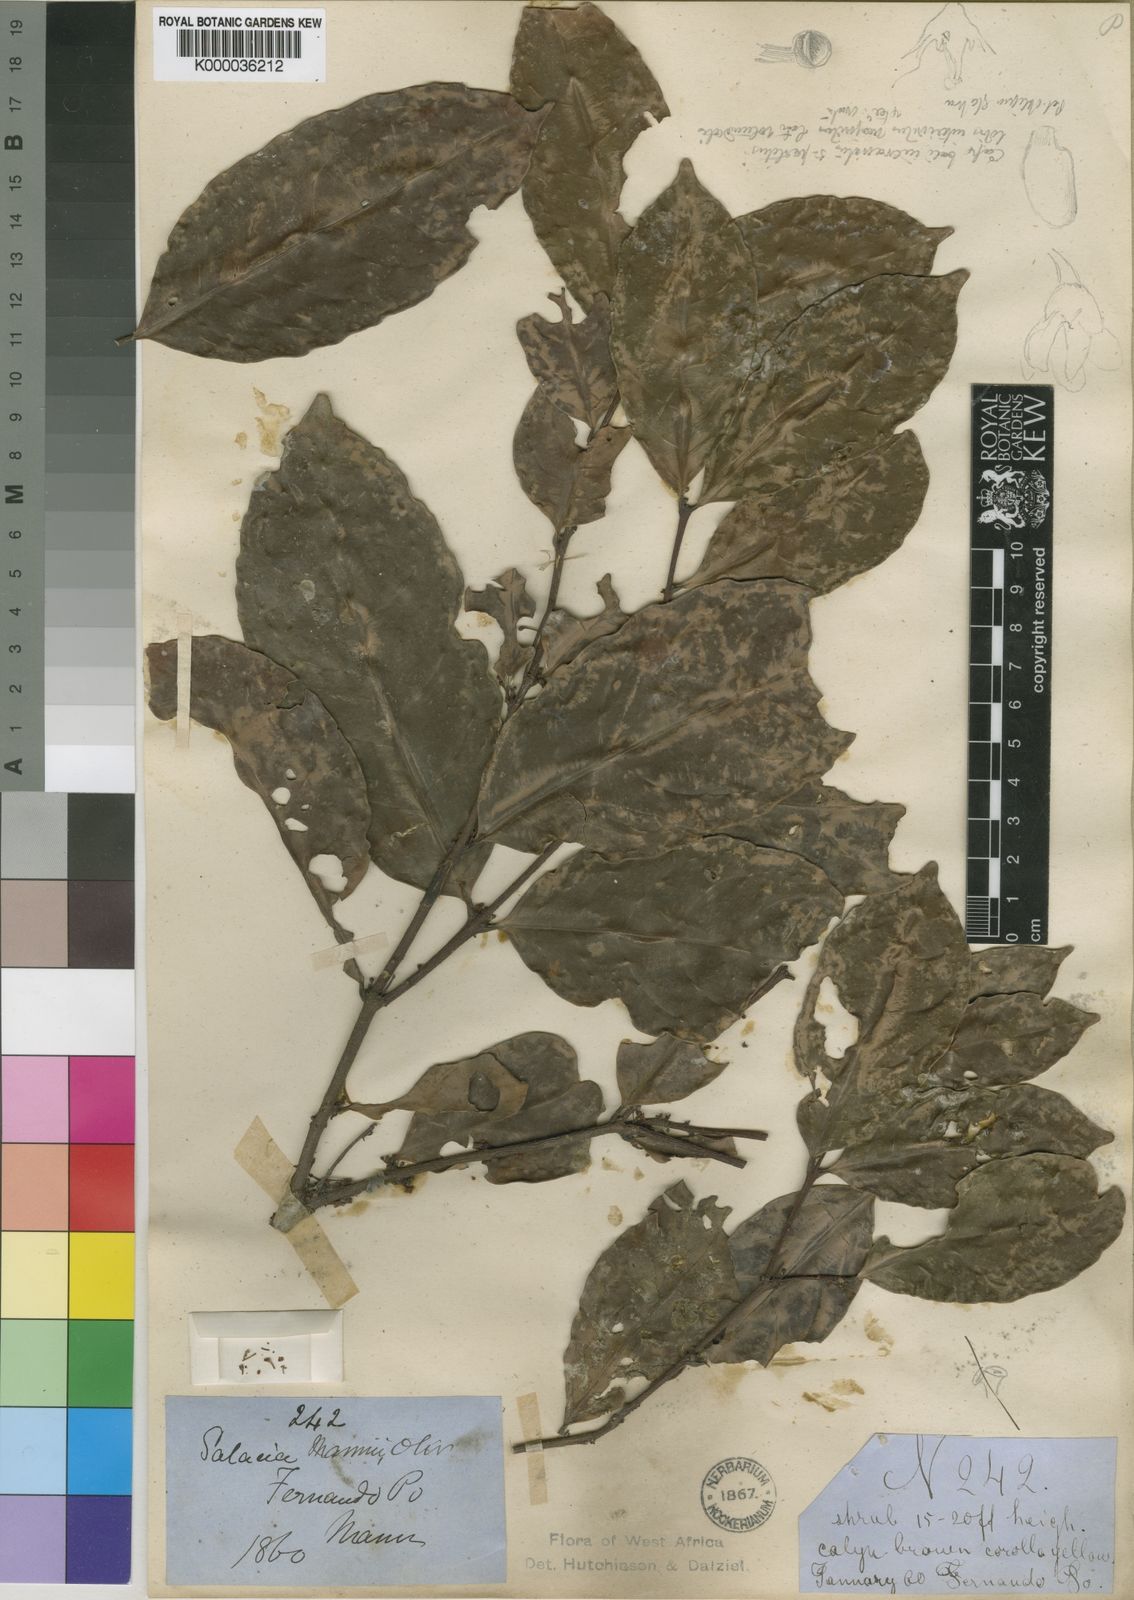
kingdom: Plantae
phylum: Tracheophyta
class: Magnoliopsida
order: Celastrales
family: Celastraceae
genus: Salacia
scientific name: Salacia mannii
